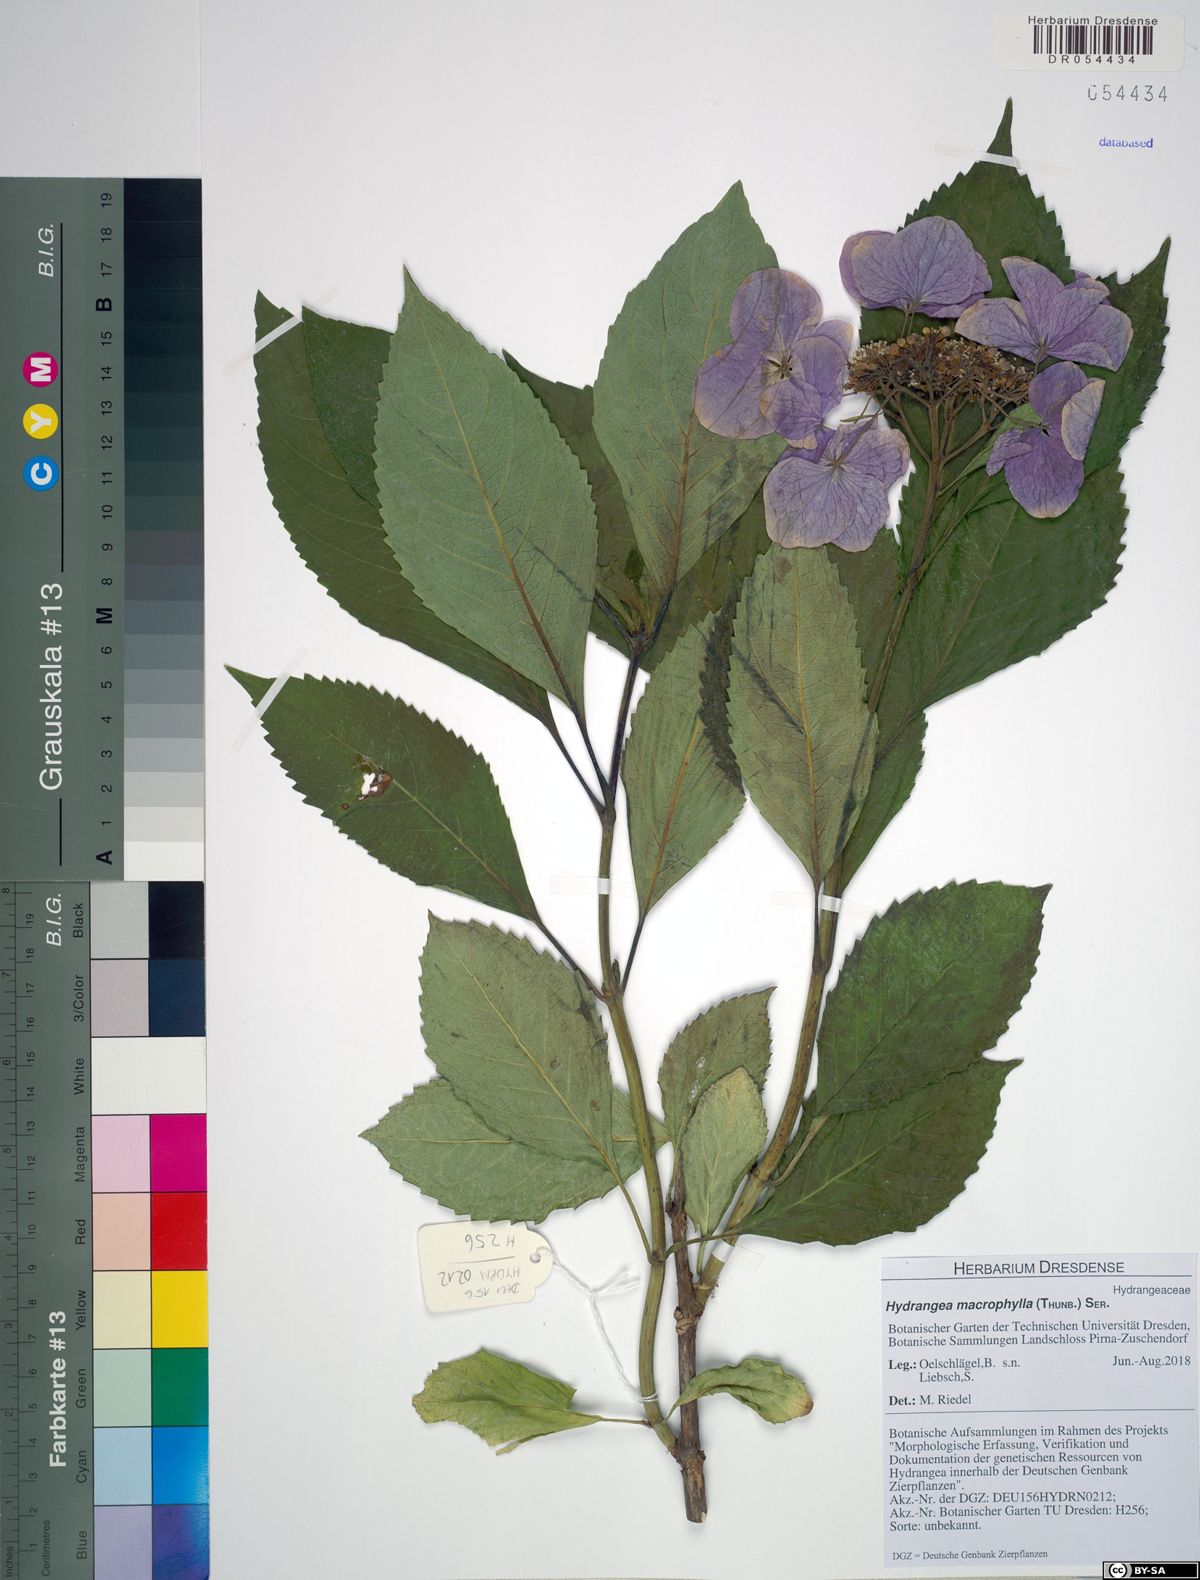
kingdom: Plantae
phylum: Tracheophyta
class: Magnoliopsida
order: Cornales
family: Hydrangeaceae
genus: Hydrangea
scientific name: Hydrangea macrophylla
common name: Hydrangea
